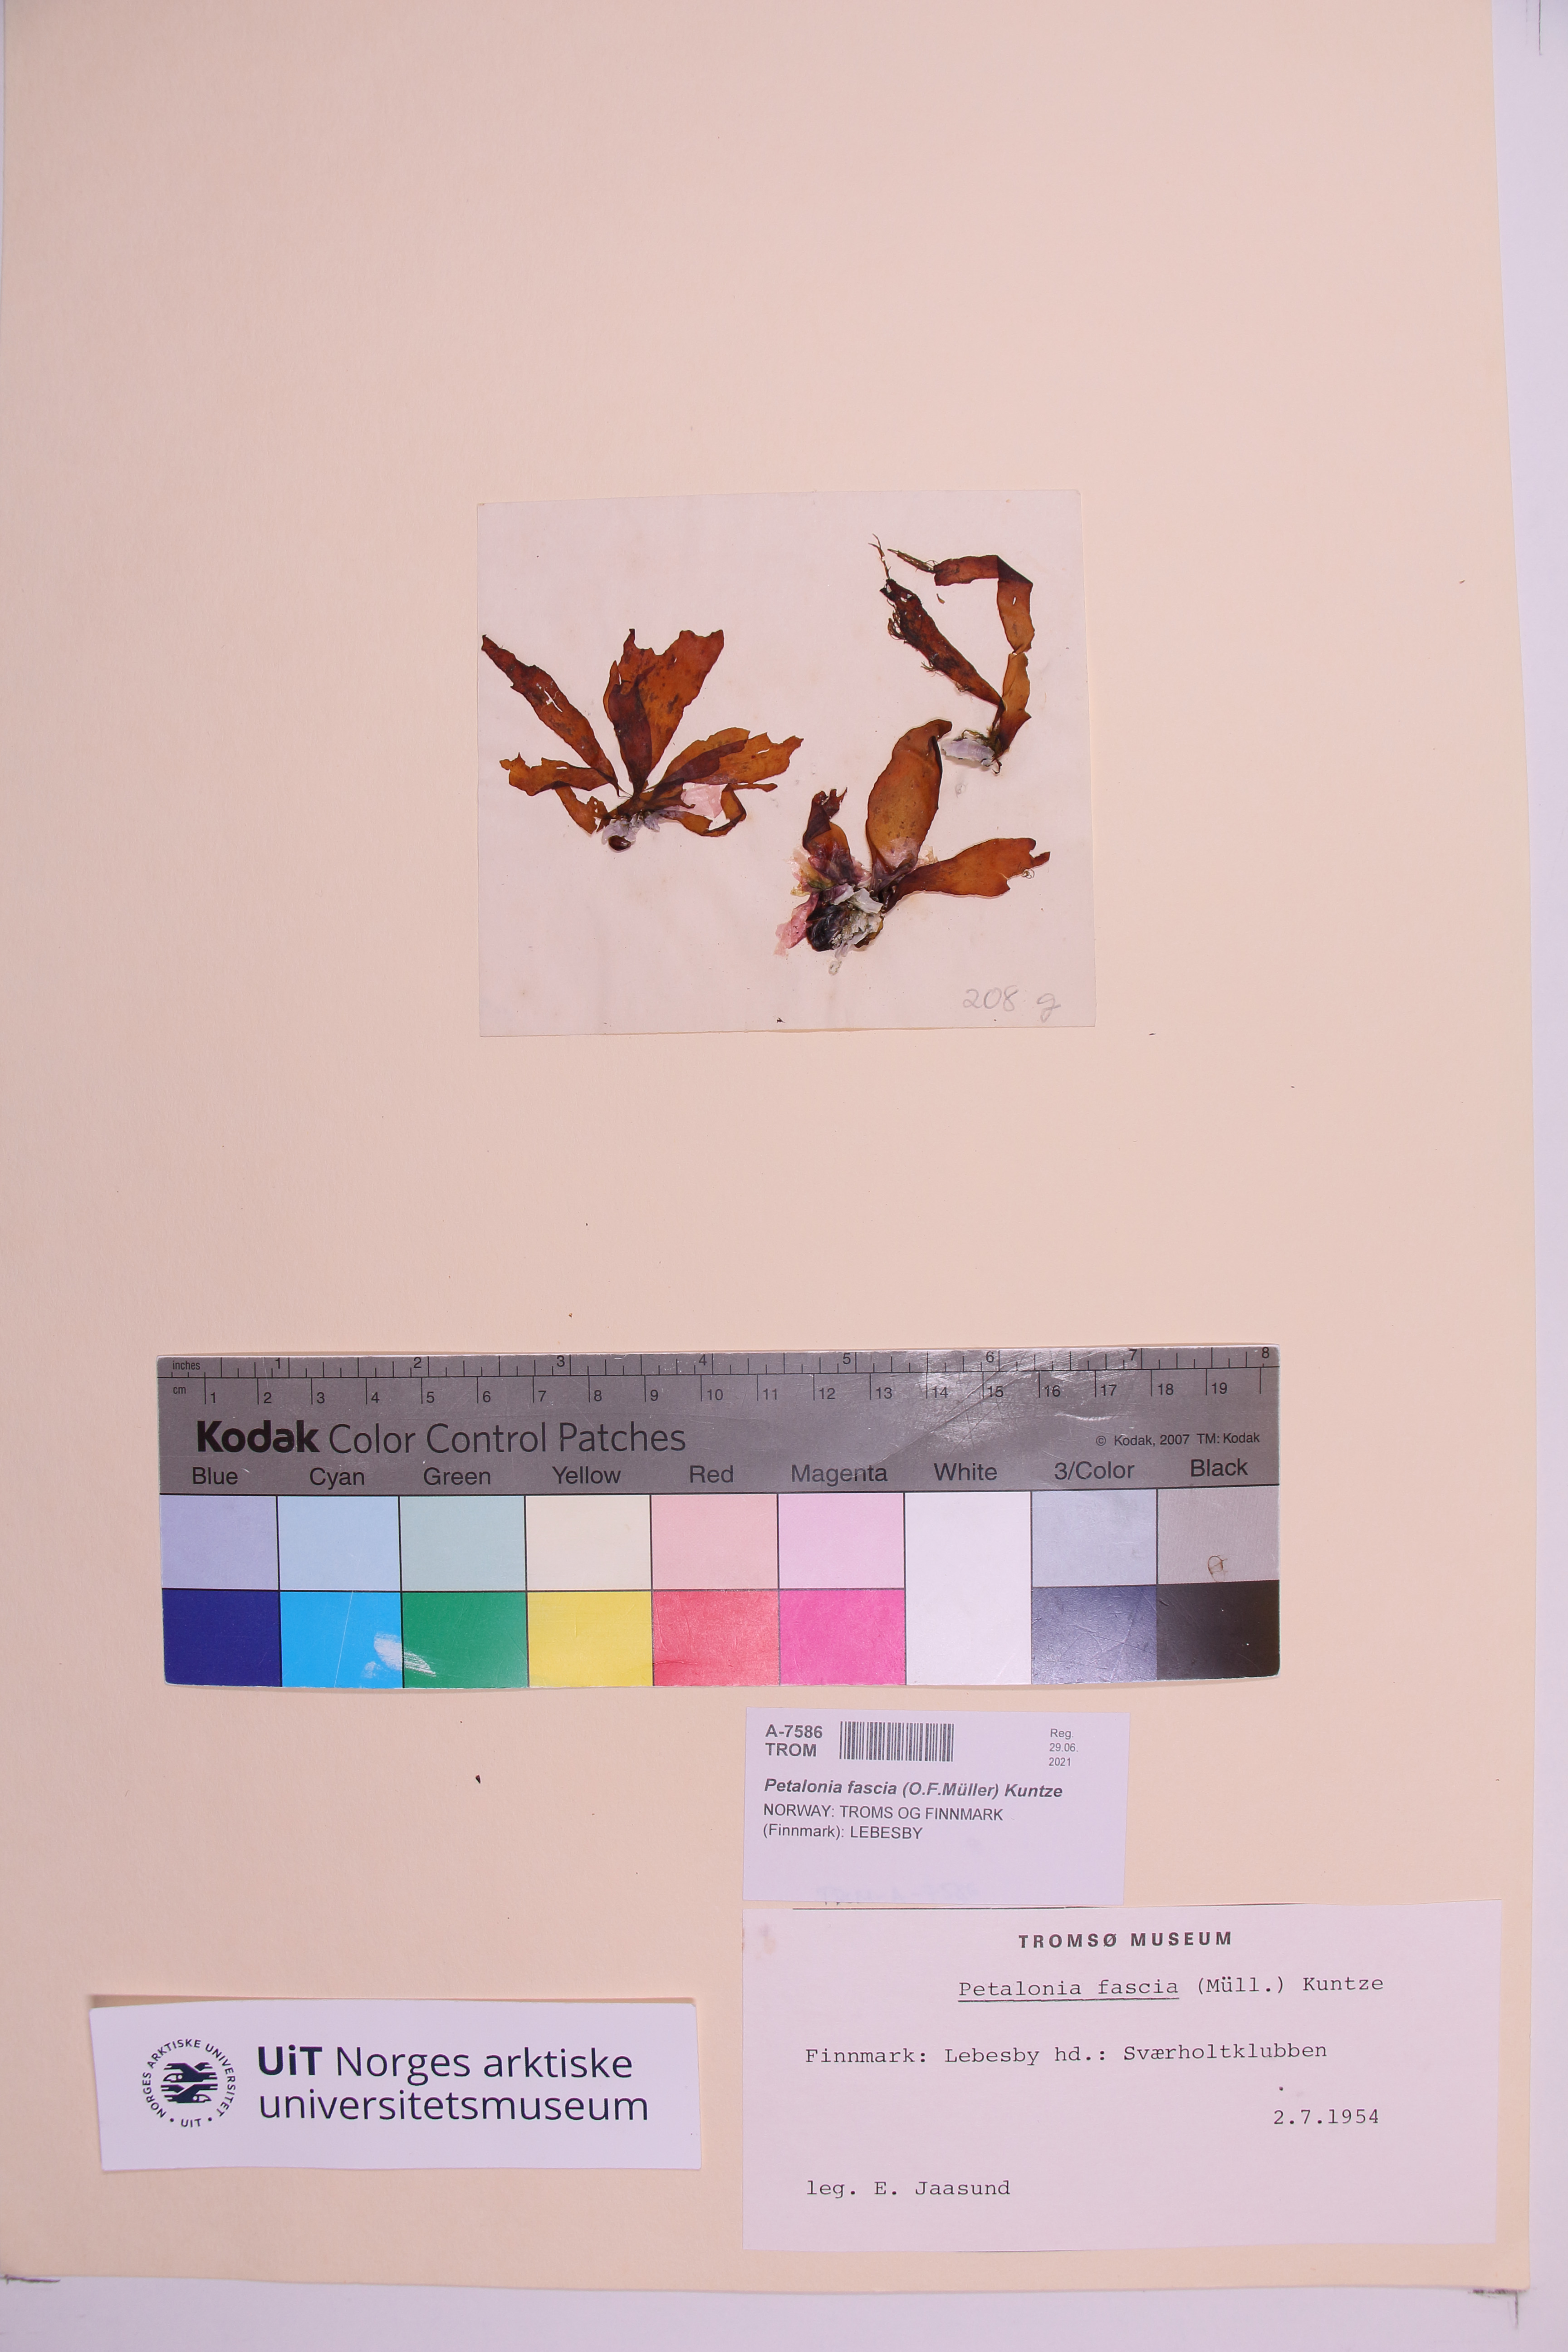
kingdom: Chromista
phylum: Ochrophyta
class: Phaeophyceae
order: Scytosiphonales
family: Scytosiphonaceae
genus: Petalonia
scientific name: Petalonia fascia
